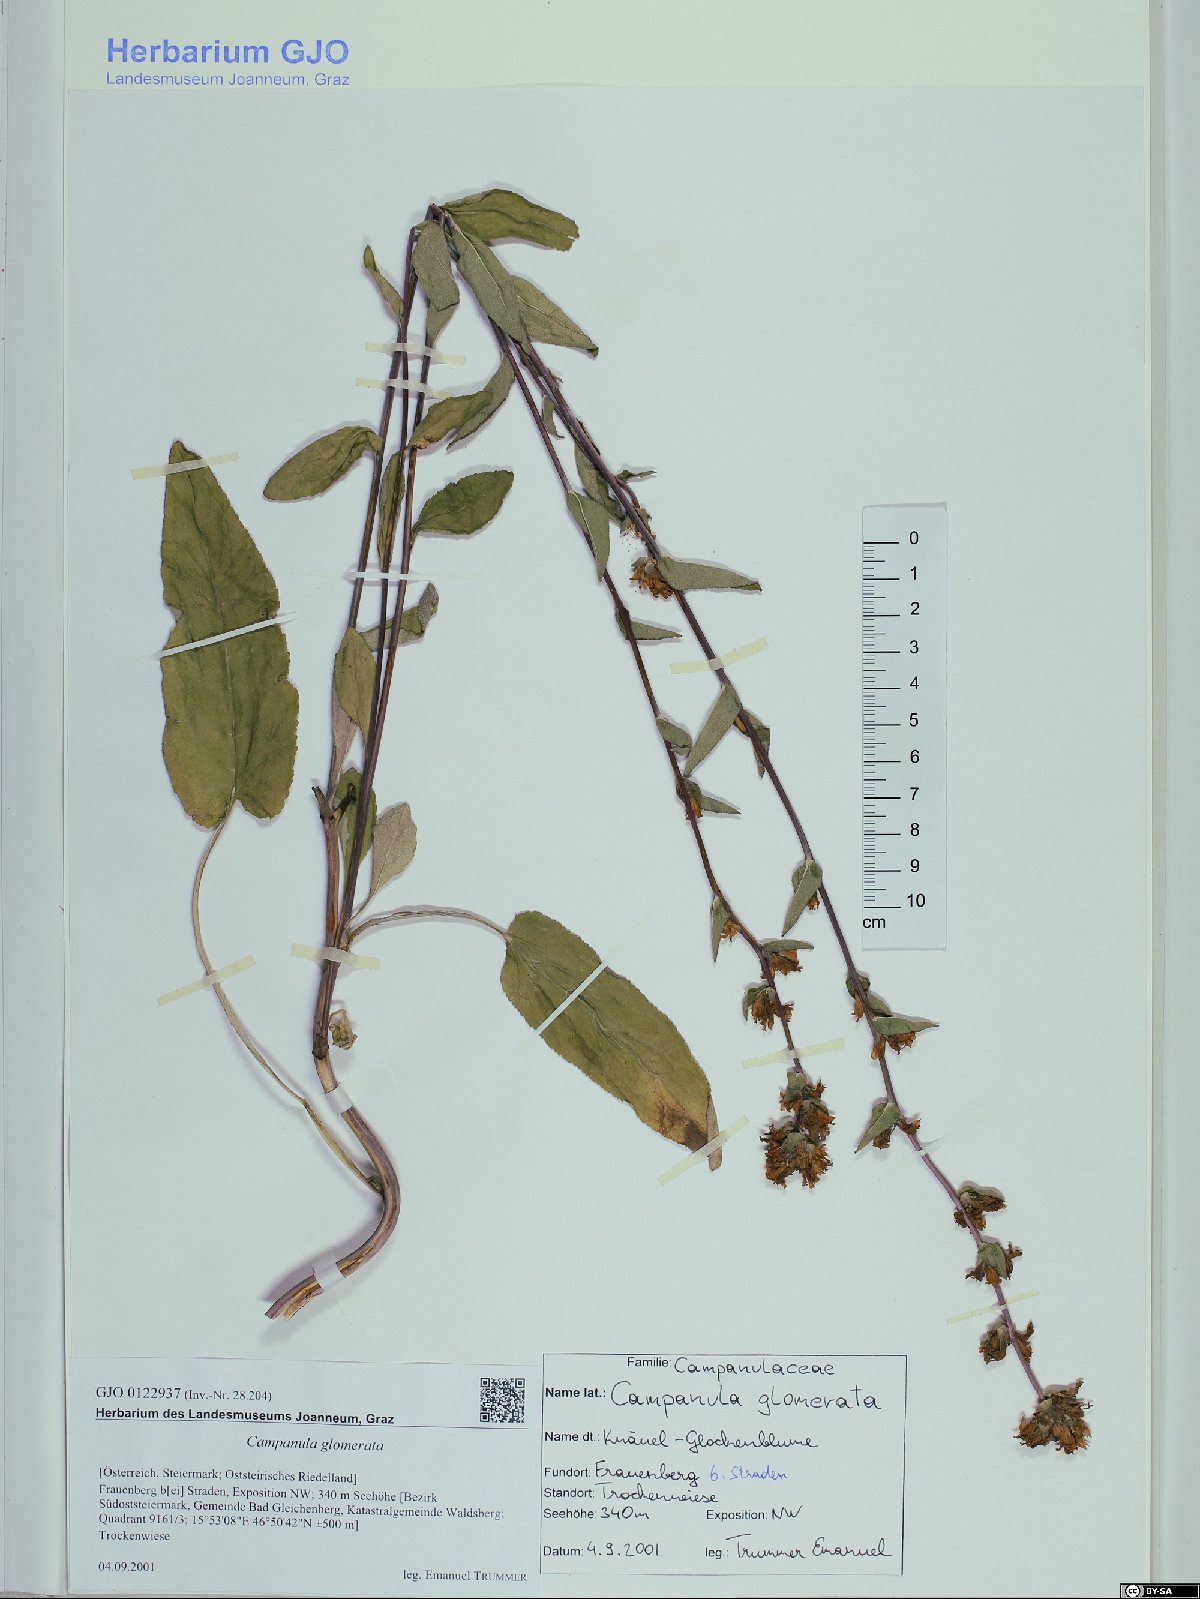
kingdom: Plantae
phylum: Tracheophyta
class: Magnoliopsida
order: Asterales
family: Campanulaceae
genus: Campanula
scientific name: Campanula glomerata
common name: Clustered bellflower
